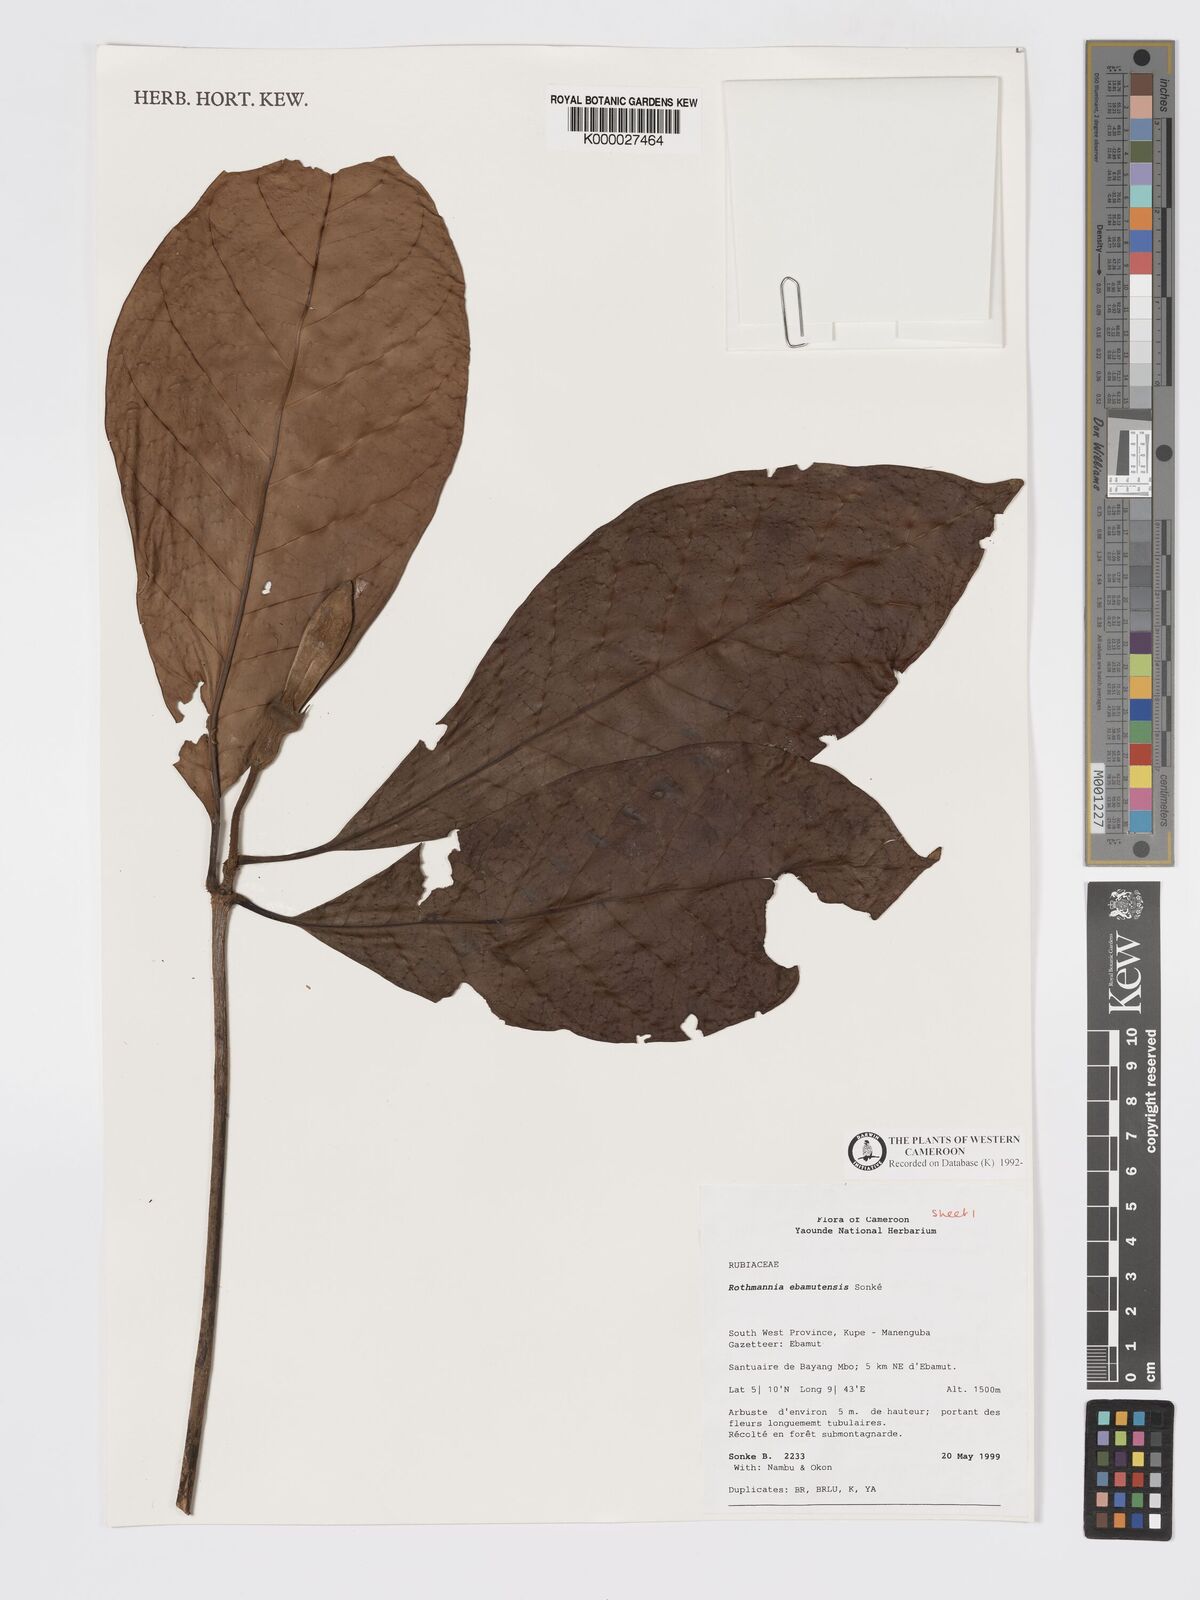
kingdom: Plantae
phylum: Tracheophyta
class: Magnoliopsida
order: Gentianales
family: Rubiaceae
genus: Rothmannia
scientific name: Rothmannia
